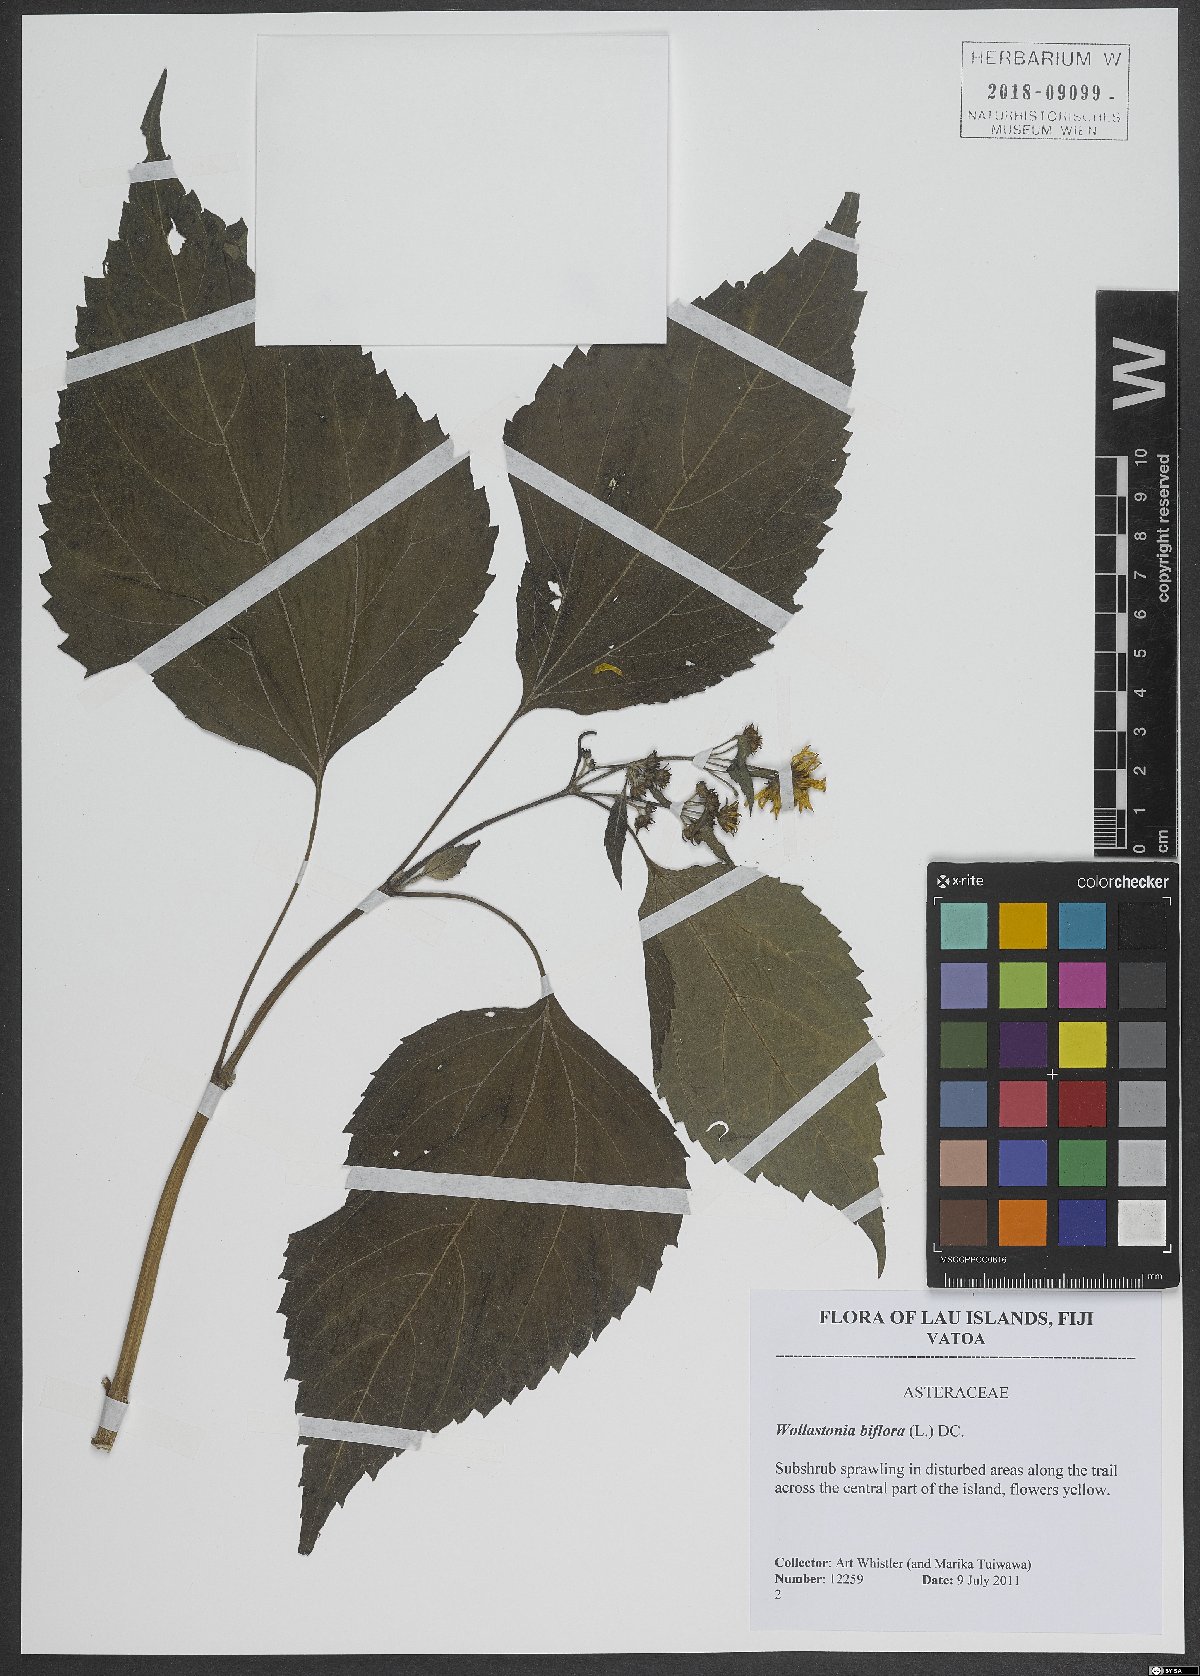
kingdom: Plantae
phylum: Tracheophyta
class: Magnoliopsida
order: Asterales
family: Asteraceae
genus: Wollastonia
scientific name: Wollastonia biflora
